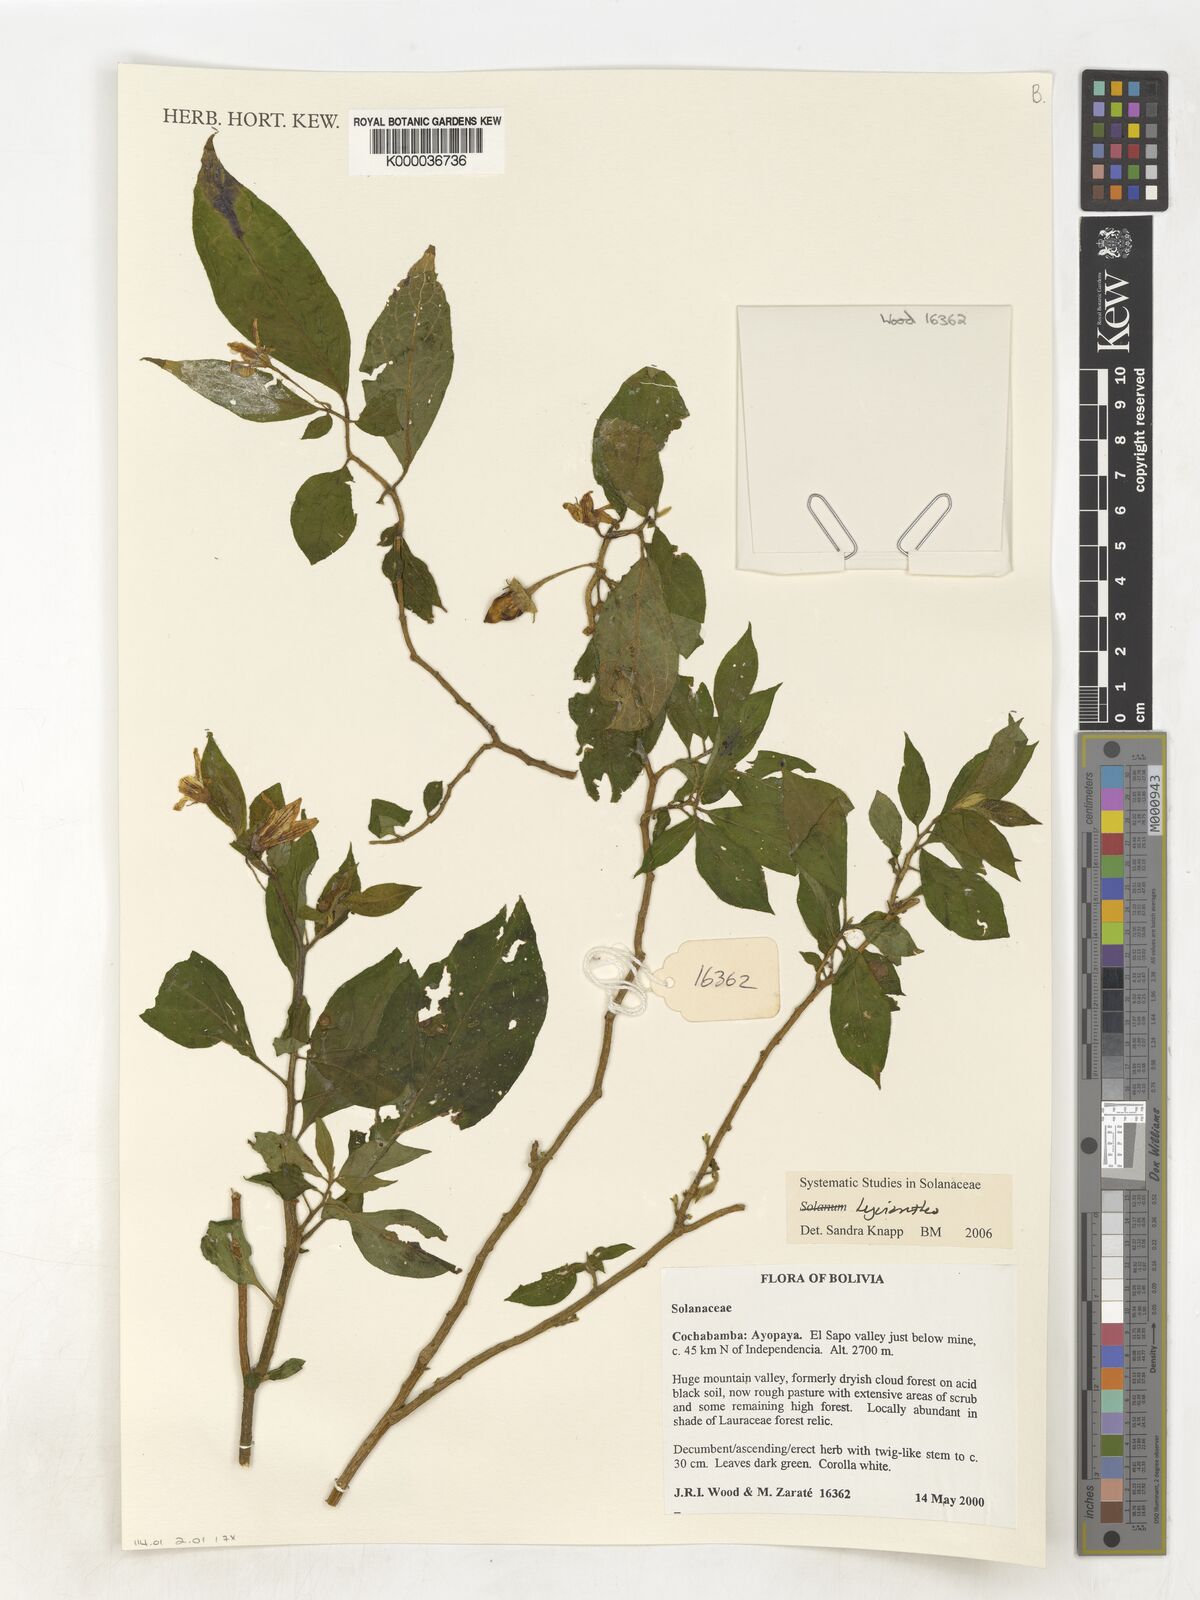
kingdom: Plantae
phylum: Tracheophyta
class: Magnoliopsida
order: Solanales
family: Solanaceae
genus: Lycianthes
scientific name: Lycianthes
